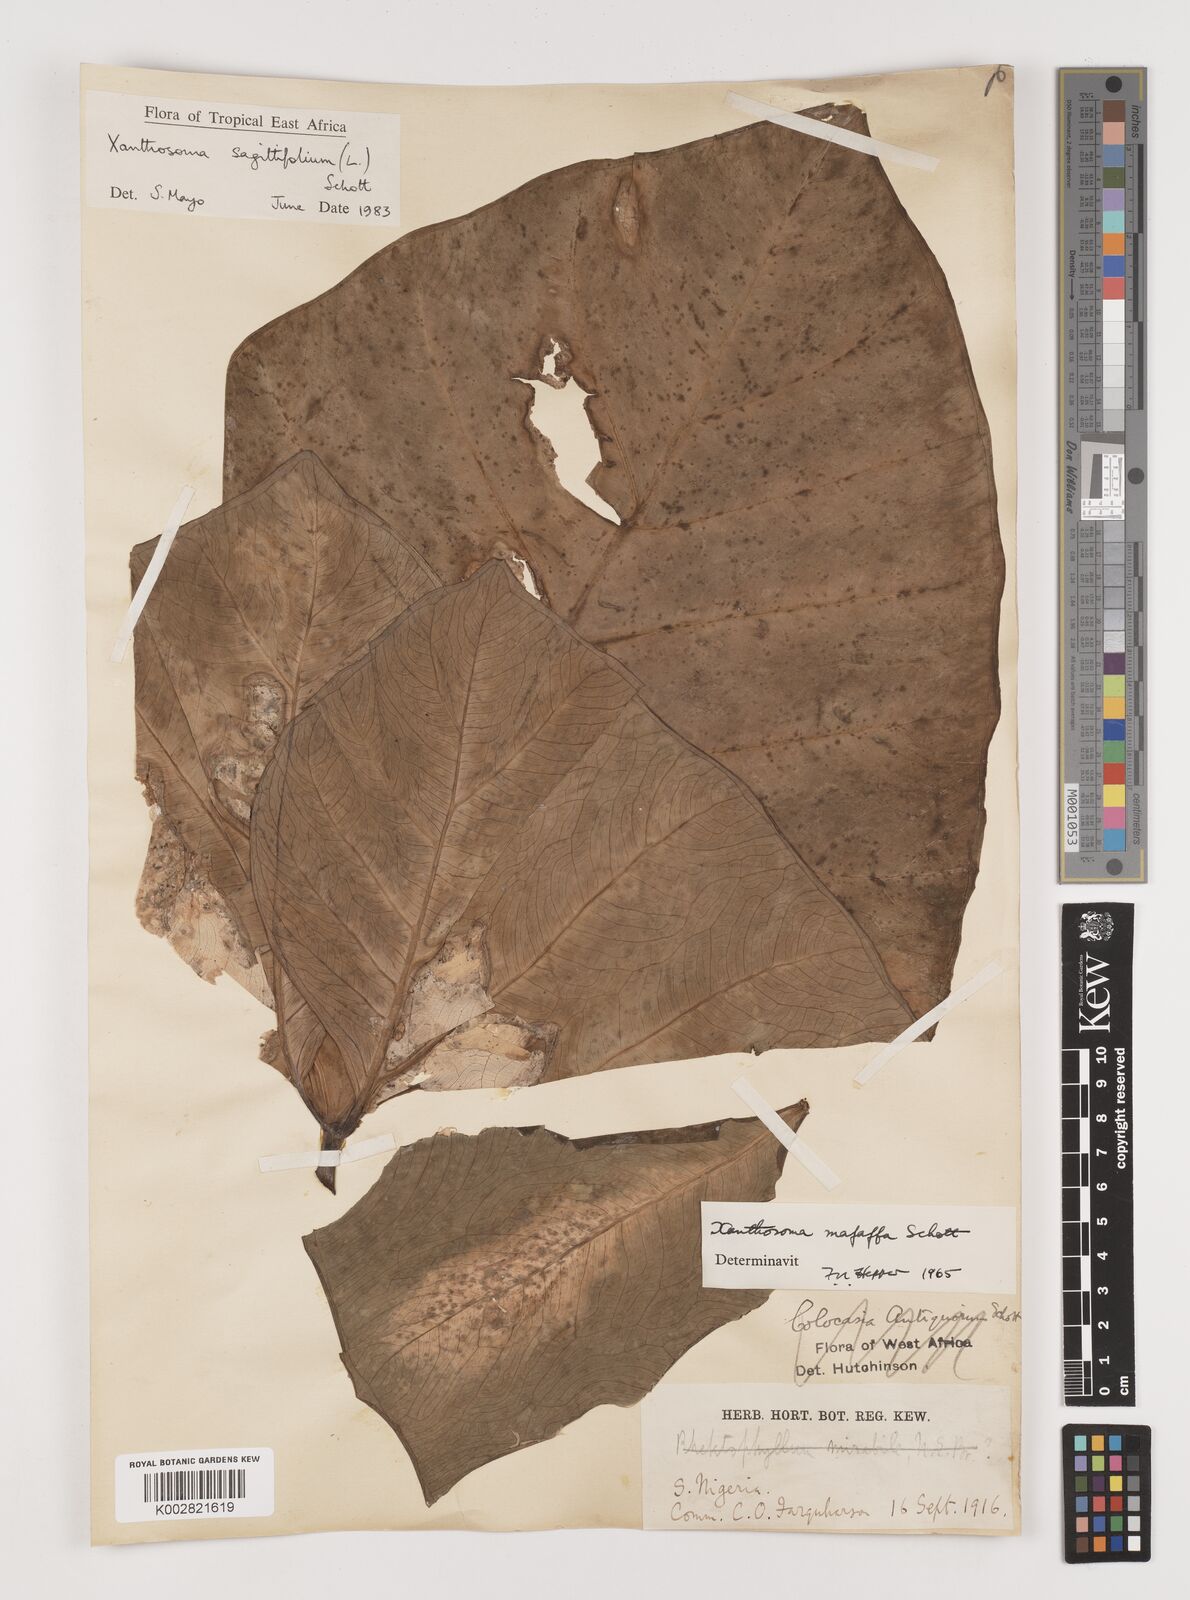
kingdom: Plantae
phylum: Tracheophyta
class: Liliopsida
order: Alismatales
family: Araceae
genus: Xanthosoma
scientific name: Xanthosoma sagittifolium
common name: Arrowleaf elephant's ear
